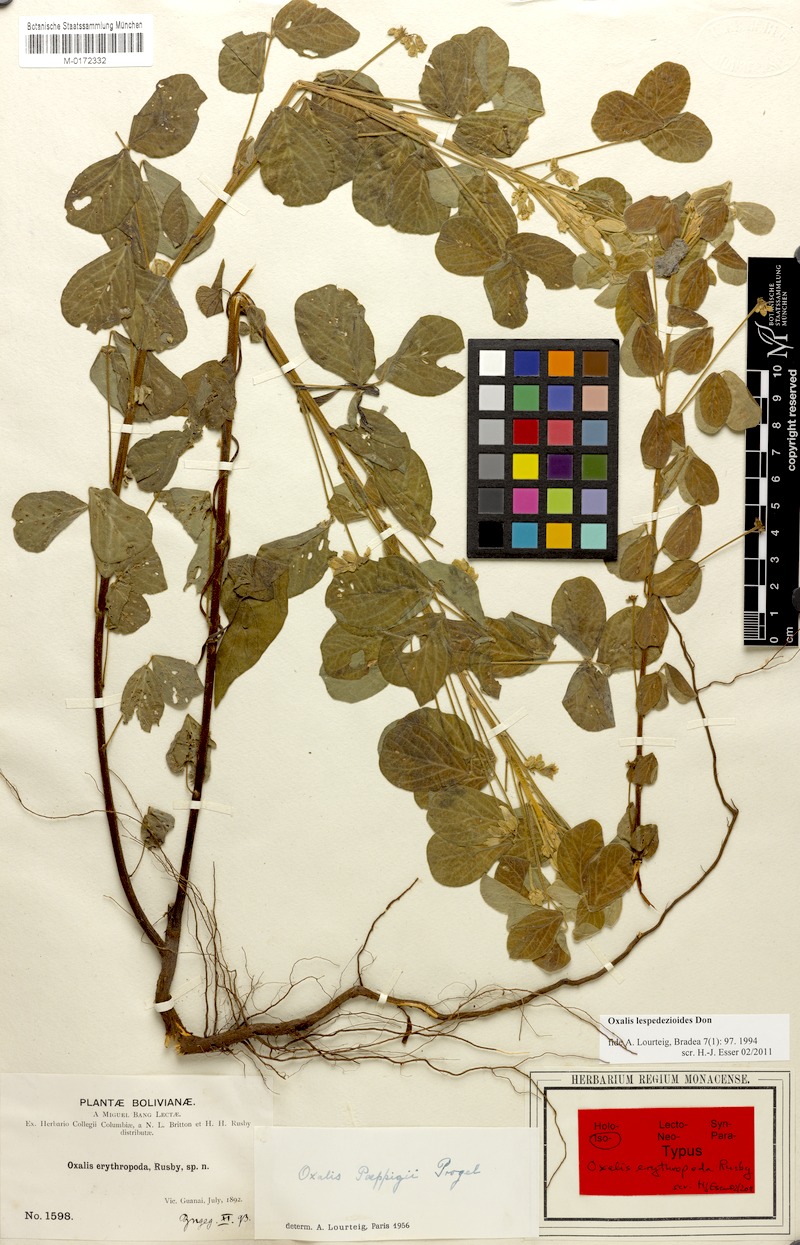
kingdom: Plantae
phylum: Tracheophyta
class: Magnoliopsida
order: Oxalidales
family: Oxalidaceae
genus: Oxalis
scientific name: Oxalis lespedezioides
